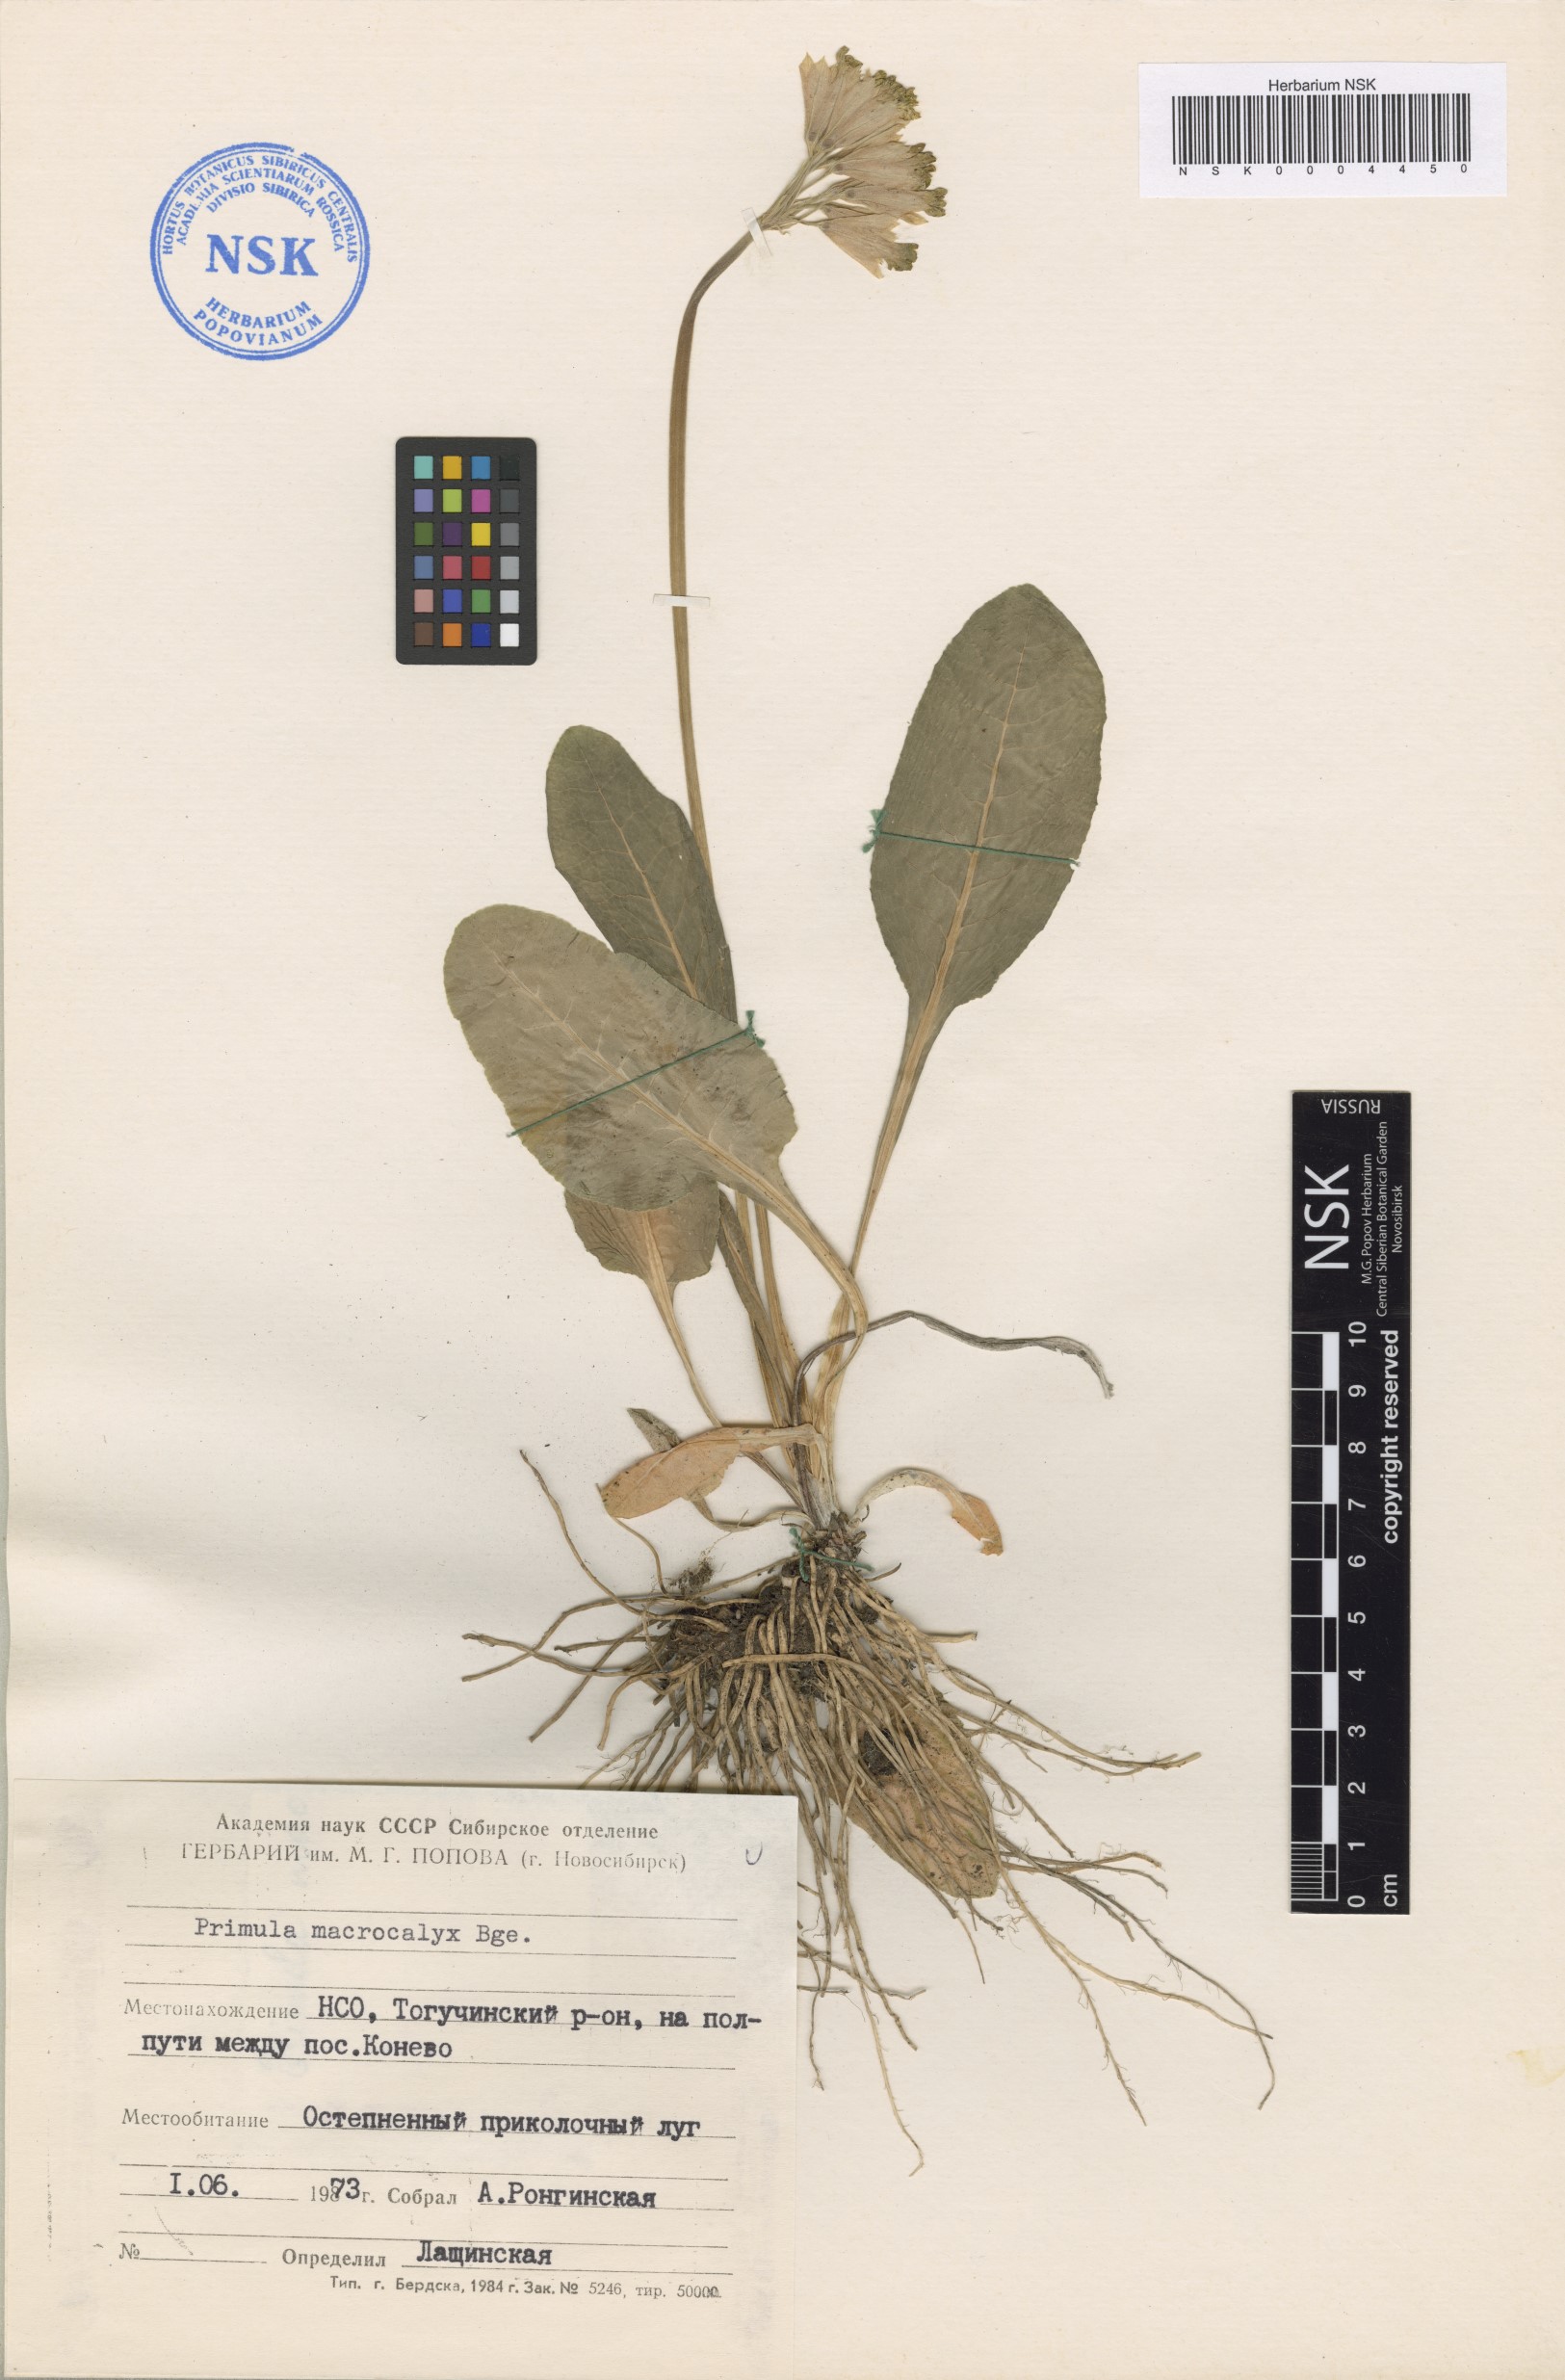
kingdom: Plantae
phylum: Tracheophyta
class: Magnoliopsida
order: Fagales
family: Betulaceae
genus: Betula
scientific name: Betula fruticosa
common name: Japanese bog birch
